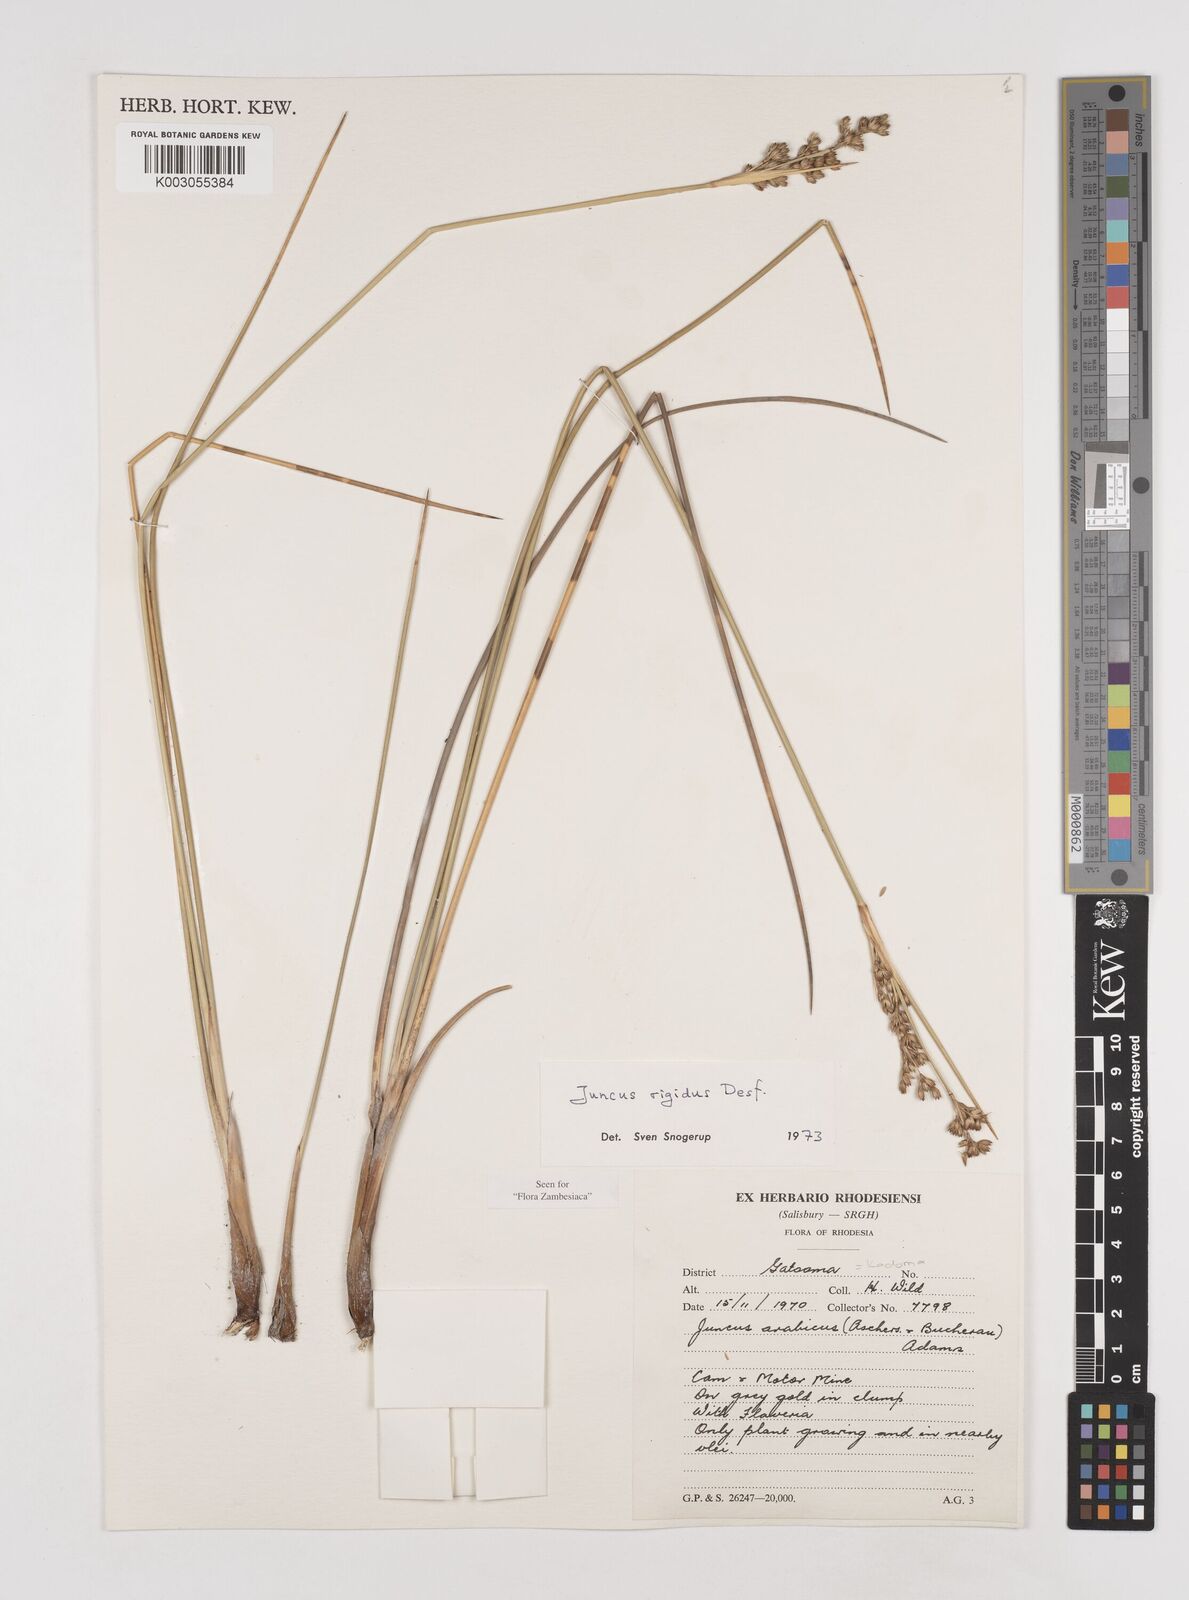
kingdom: Plantae
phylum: Tracheophyta
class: Liliopsida
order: Poales
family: Juncaceae
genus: Juncus
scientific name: Juncus rigidus
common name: Hard sea rush
